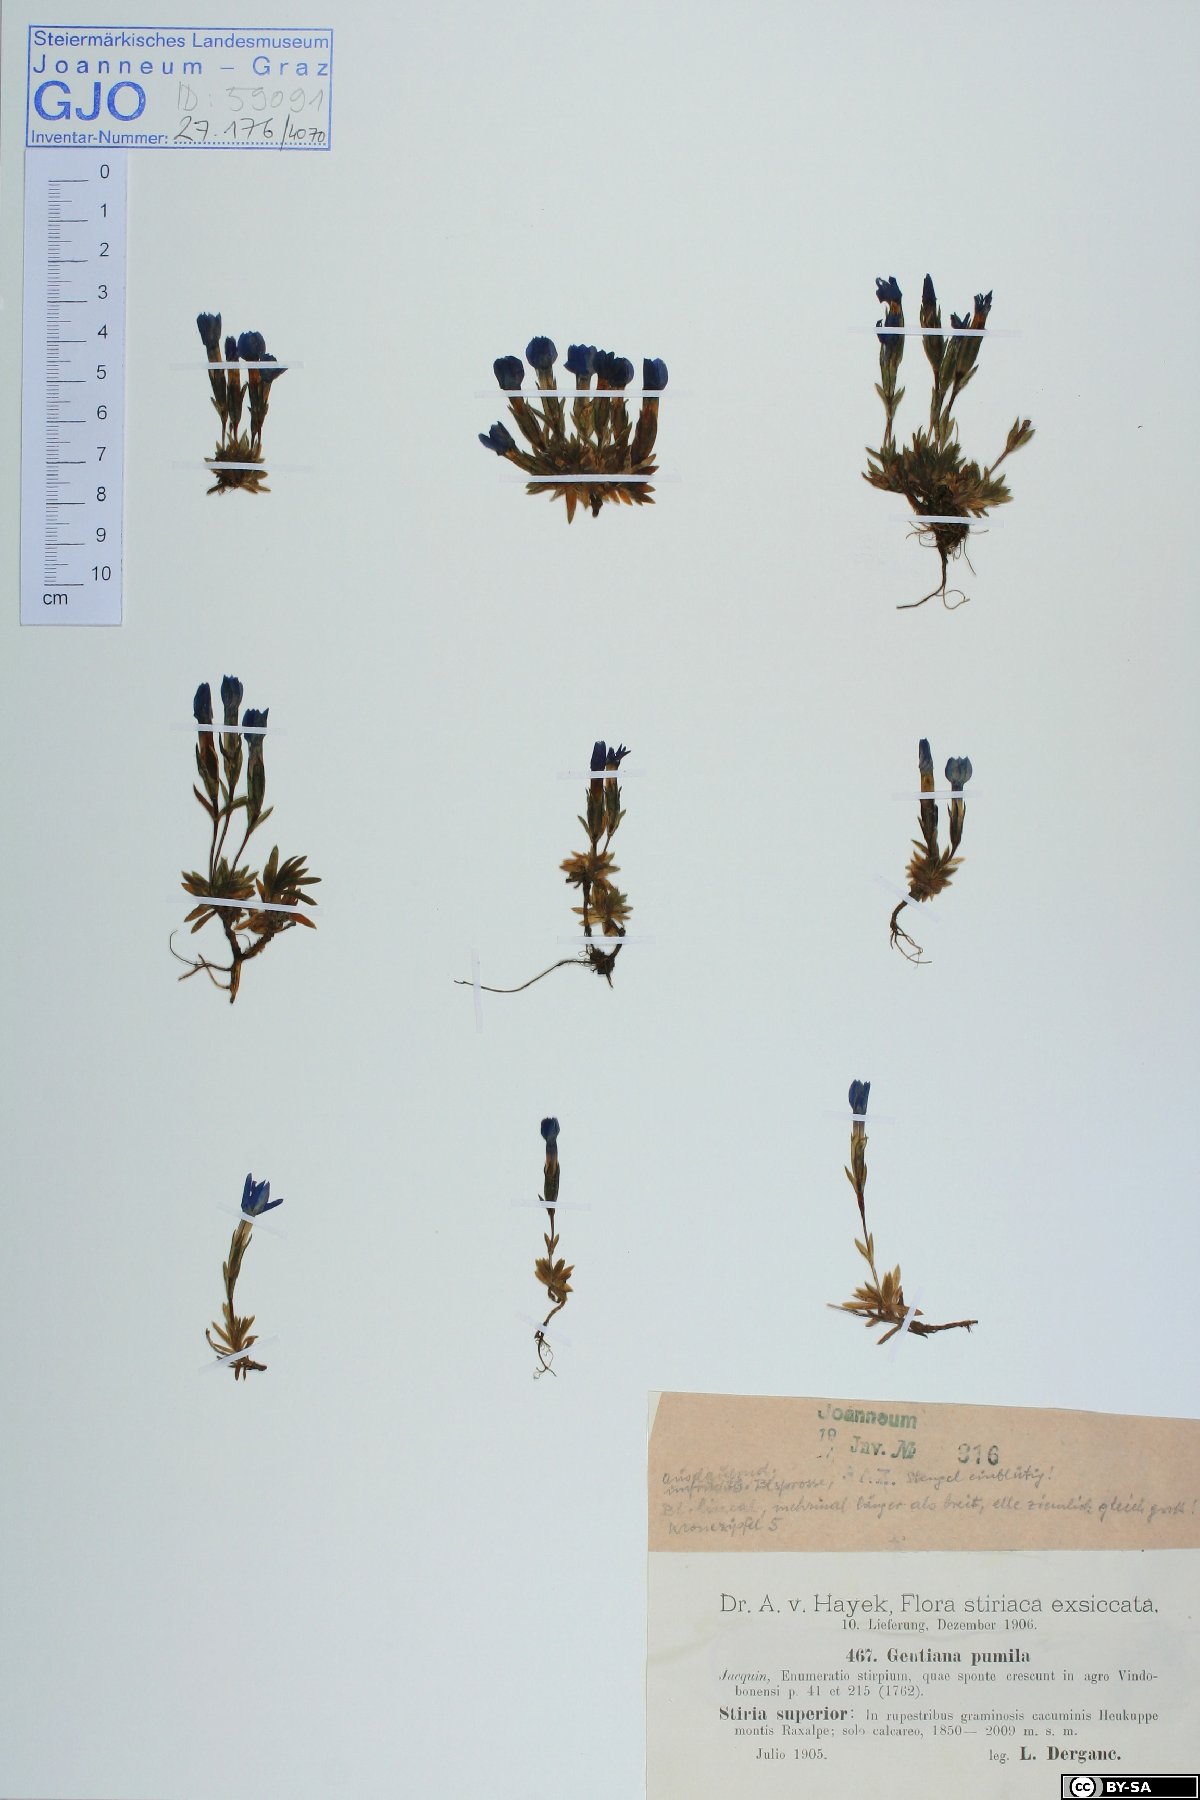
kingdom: Plantae
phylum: Tracheophyta
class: Magnoliopsida
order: Gentianales
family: Gentianaceae
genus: Gentiana
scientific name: Gentiana pumila
